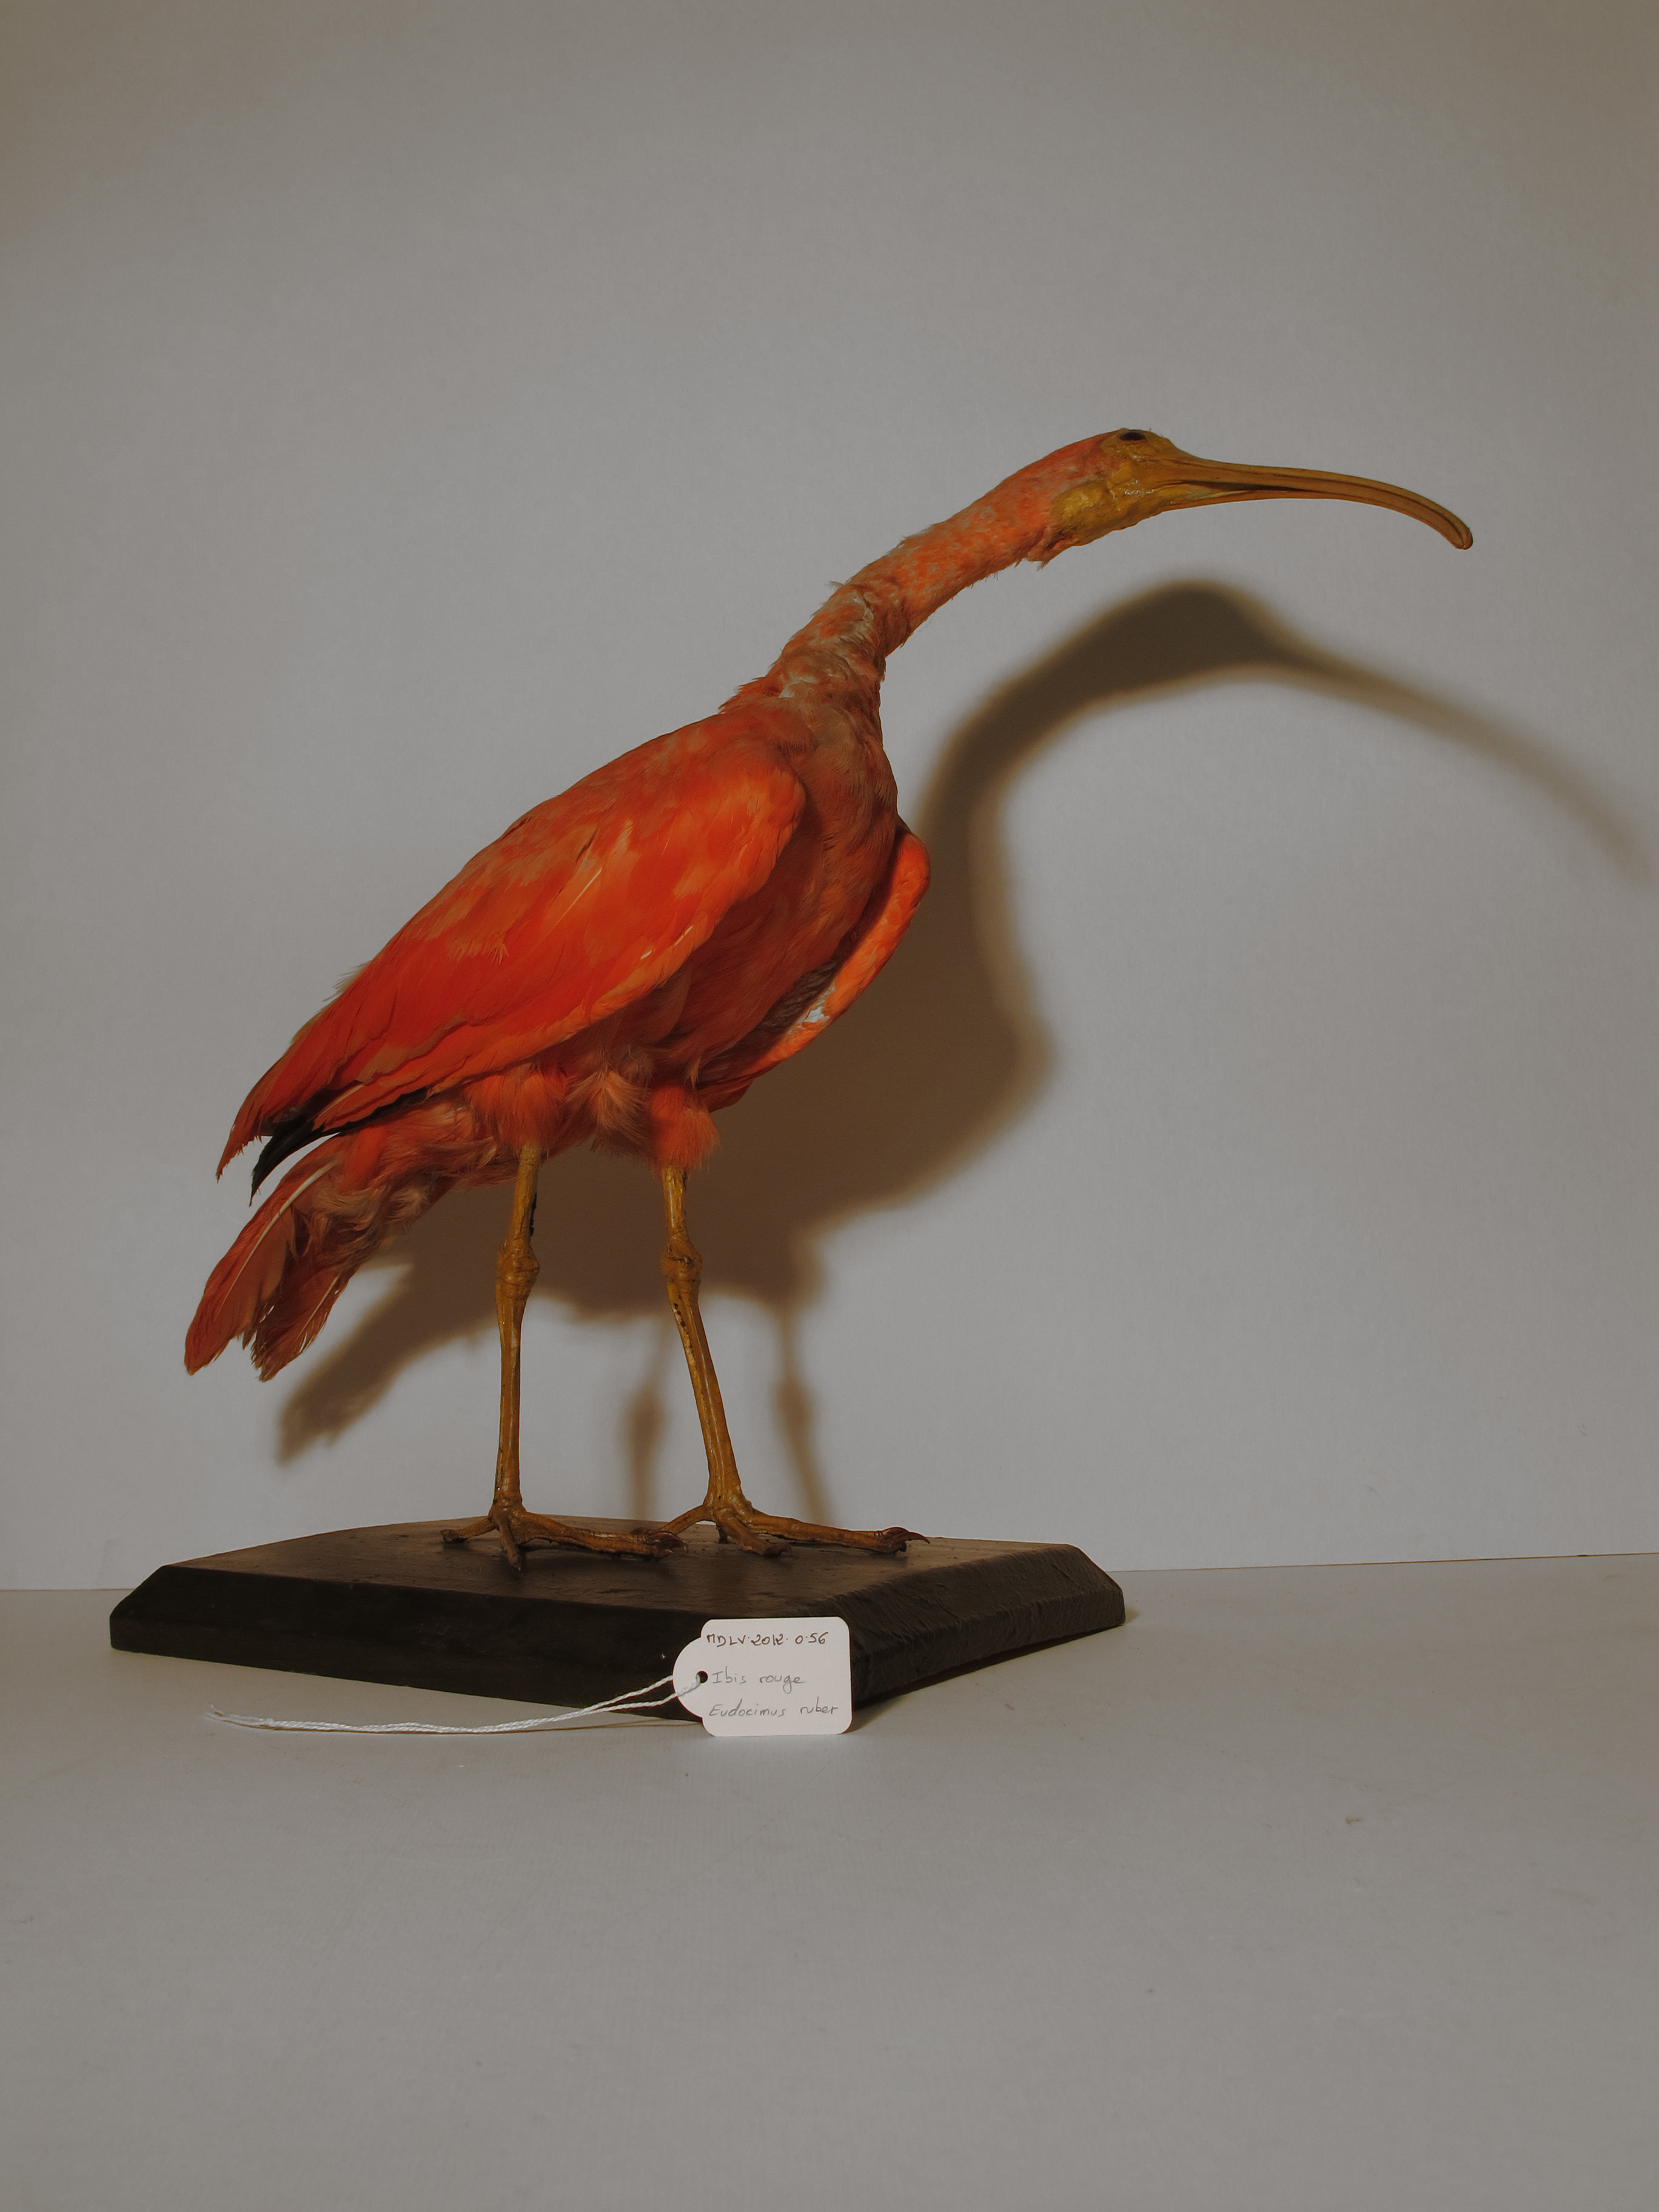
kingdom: Animalia
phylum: Chordata
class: Aves
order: Pelecaniformes
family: Threskiornithidae
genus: Eudocimus
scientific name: Eudocimus ruber
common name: Scarlet Ibis
